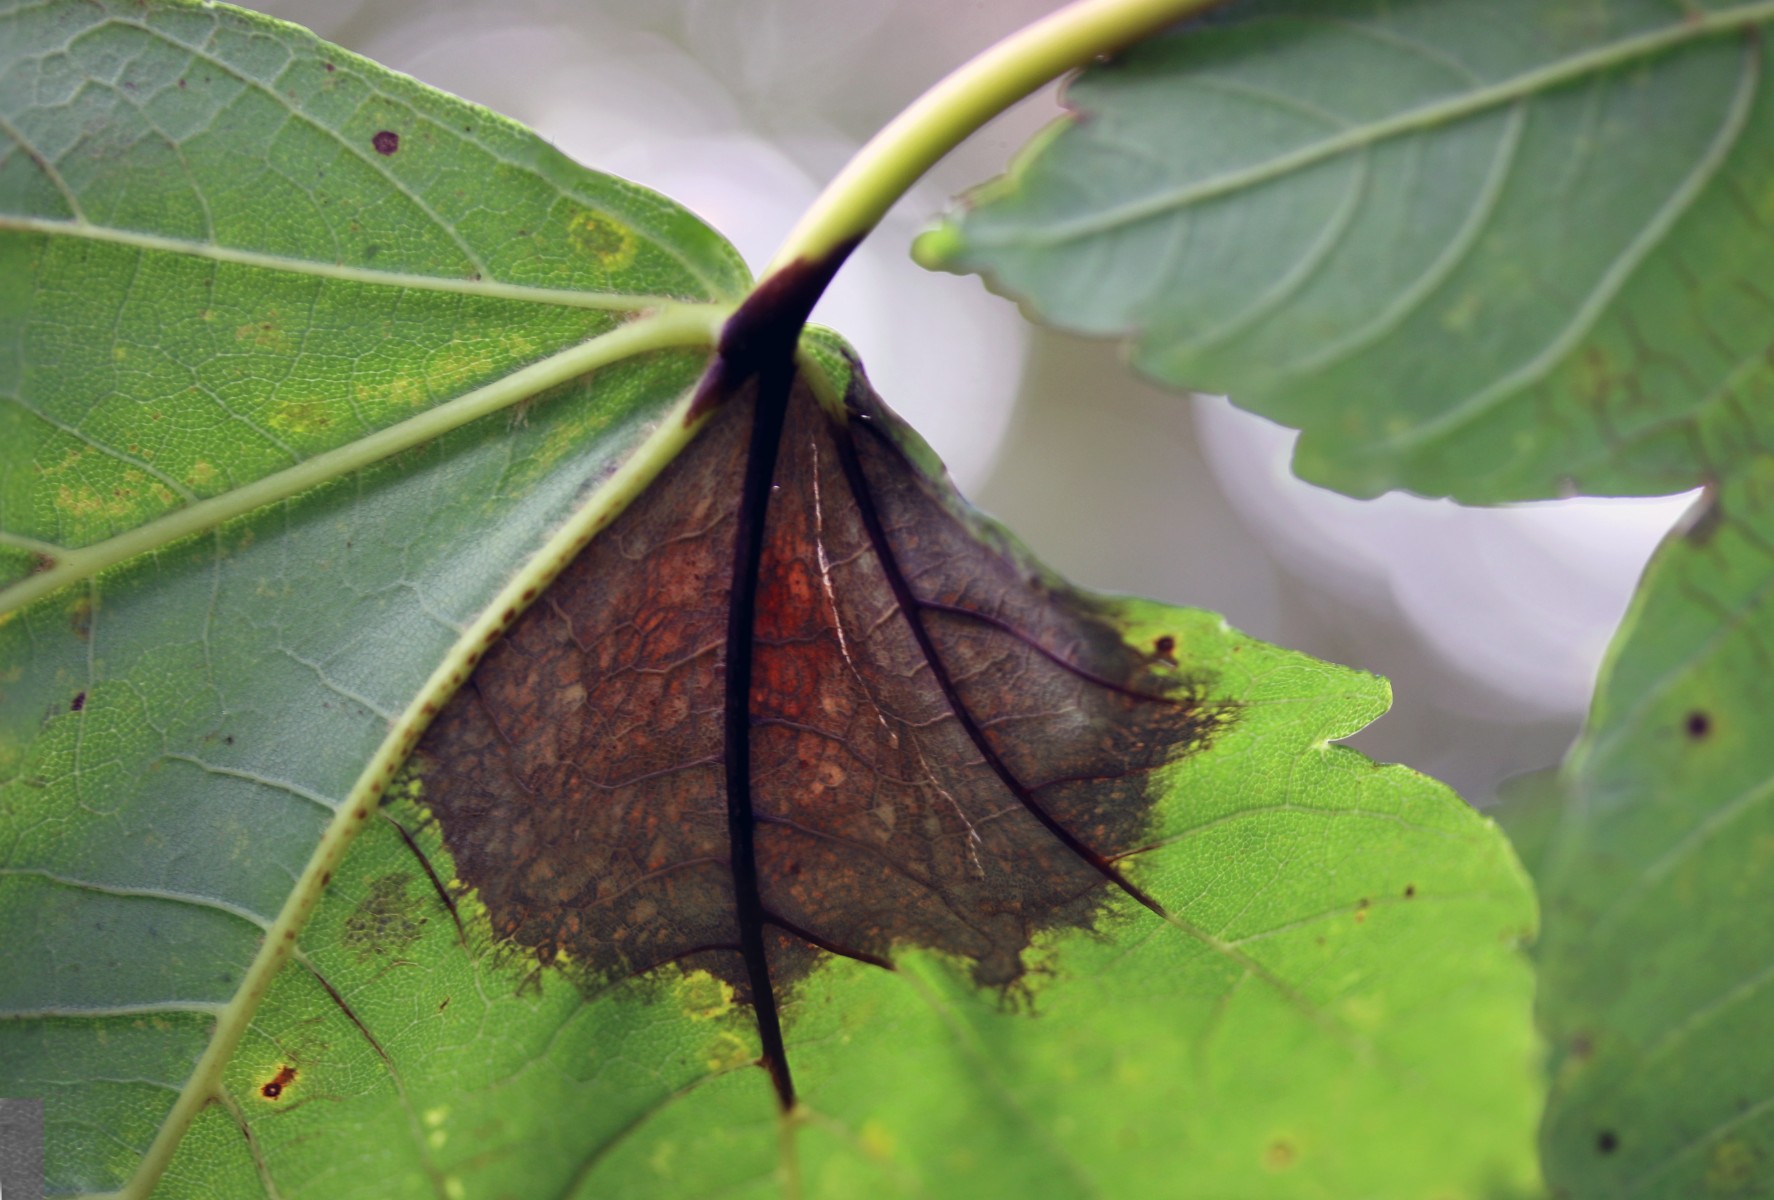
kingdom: Fungi
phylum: Ascomycota
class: Sordariomycetes
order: Diaporthales
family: Gnomoniaceae
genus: Pleuroceras
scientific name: Pleuroceras pseudoplatani
